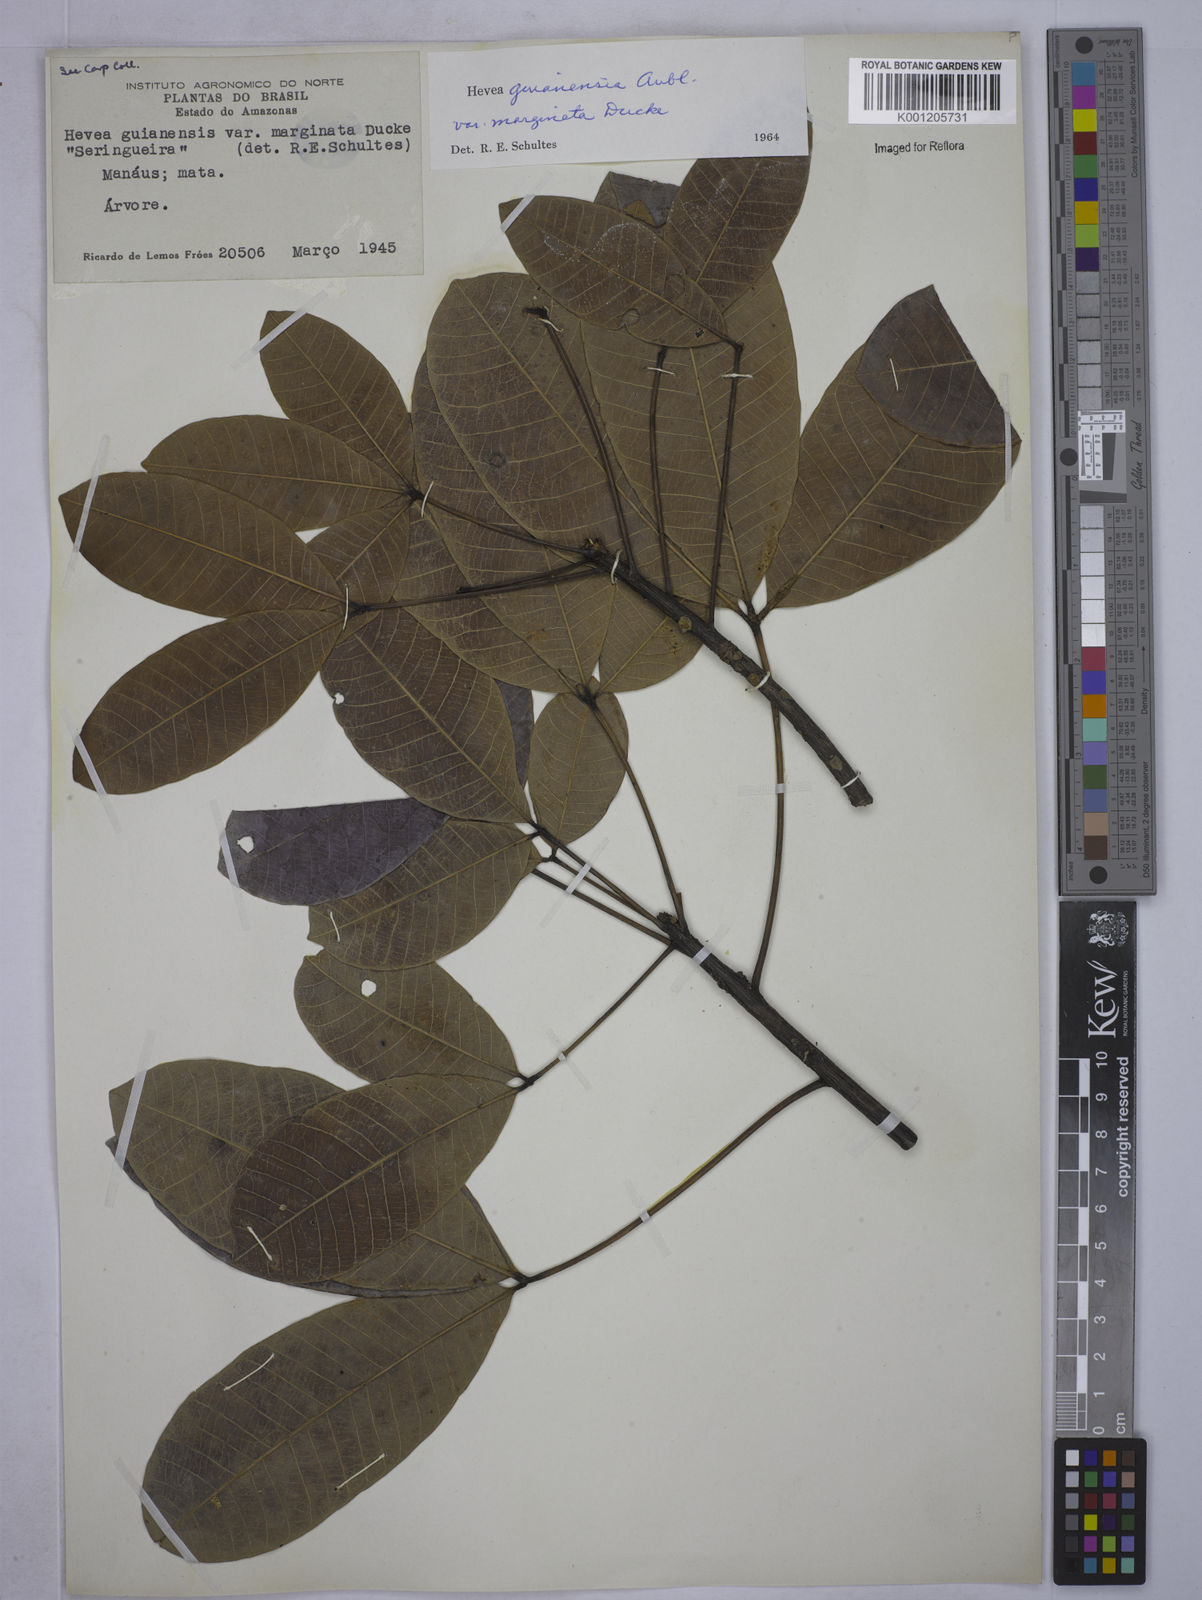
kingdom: Plantae
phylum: Tracheophyta
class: Magnoliopsida
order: Malpighiales
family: Euphorbiaceae
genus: Hevea
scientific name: Hevea guianensis
